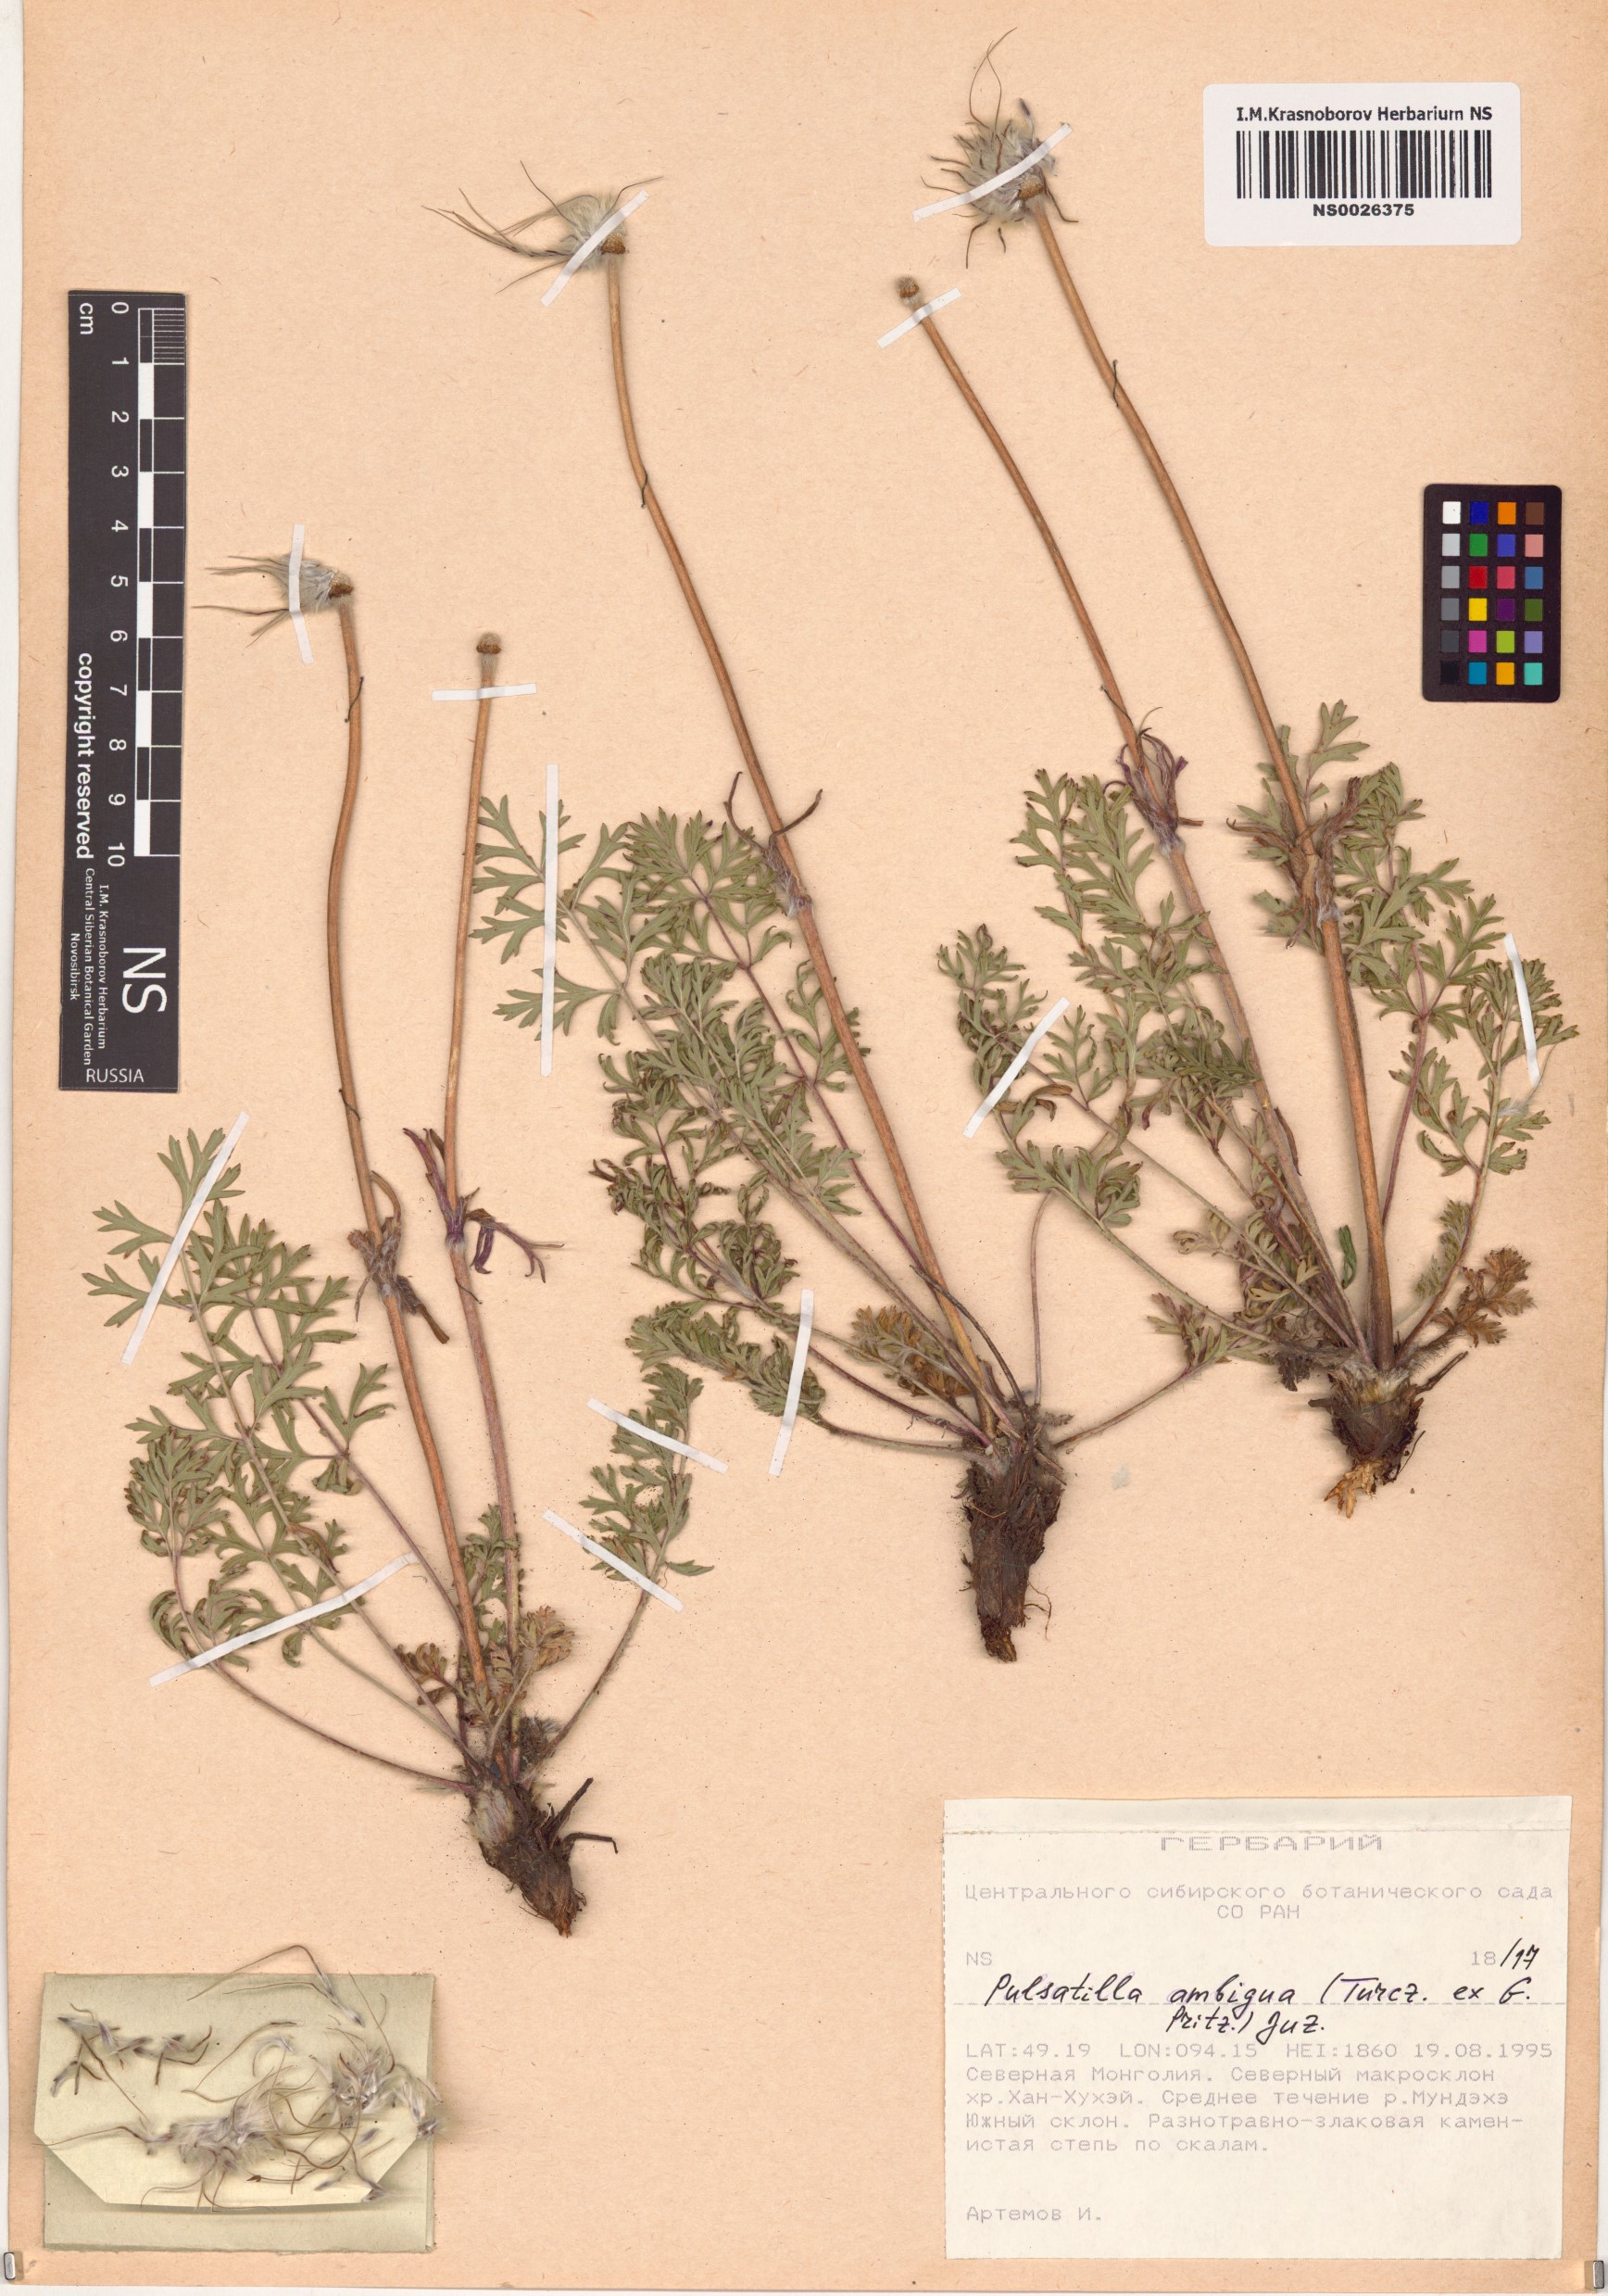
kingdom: Plantae
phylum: Tracheophyta
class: Magnoliopsida
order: Ranunculales
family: Ranunculaceae
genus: Pulsatilla
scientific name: Pulsatilla ambigua
